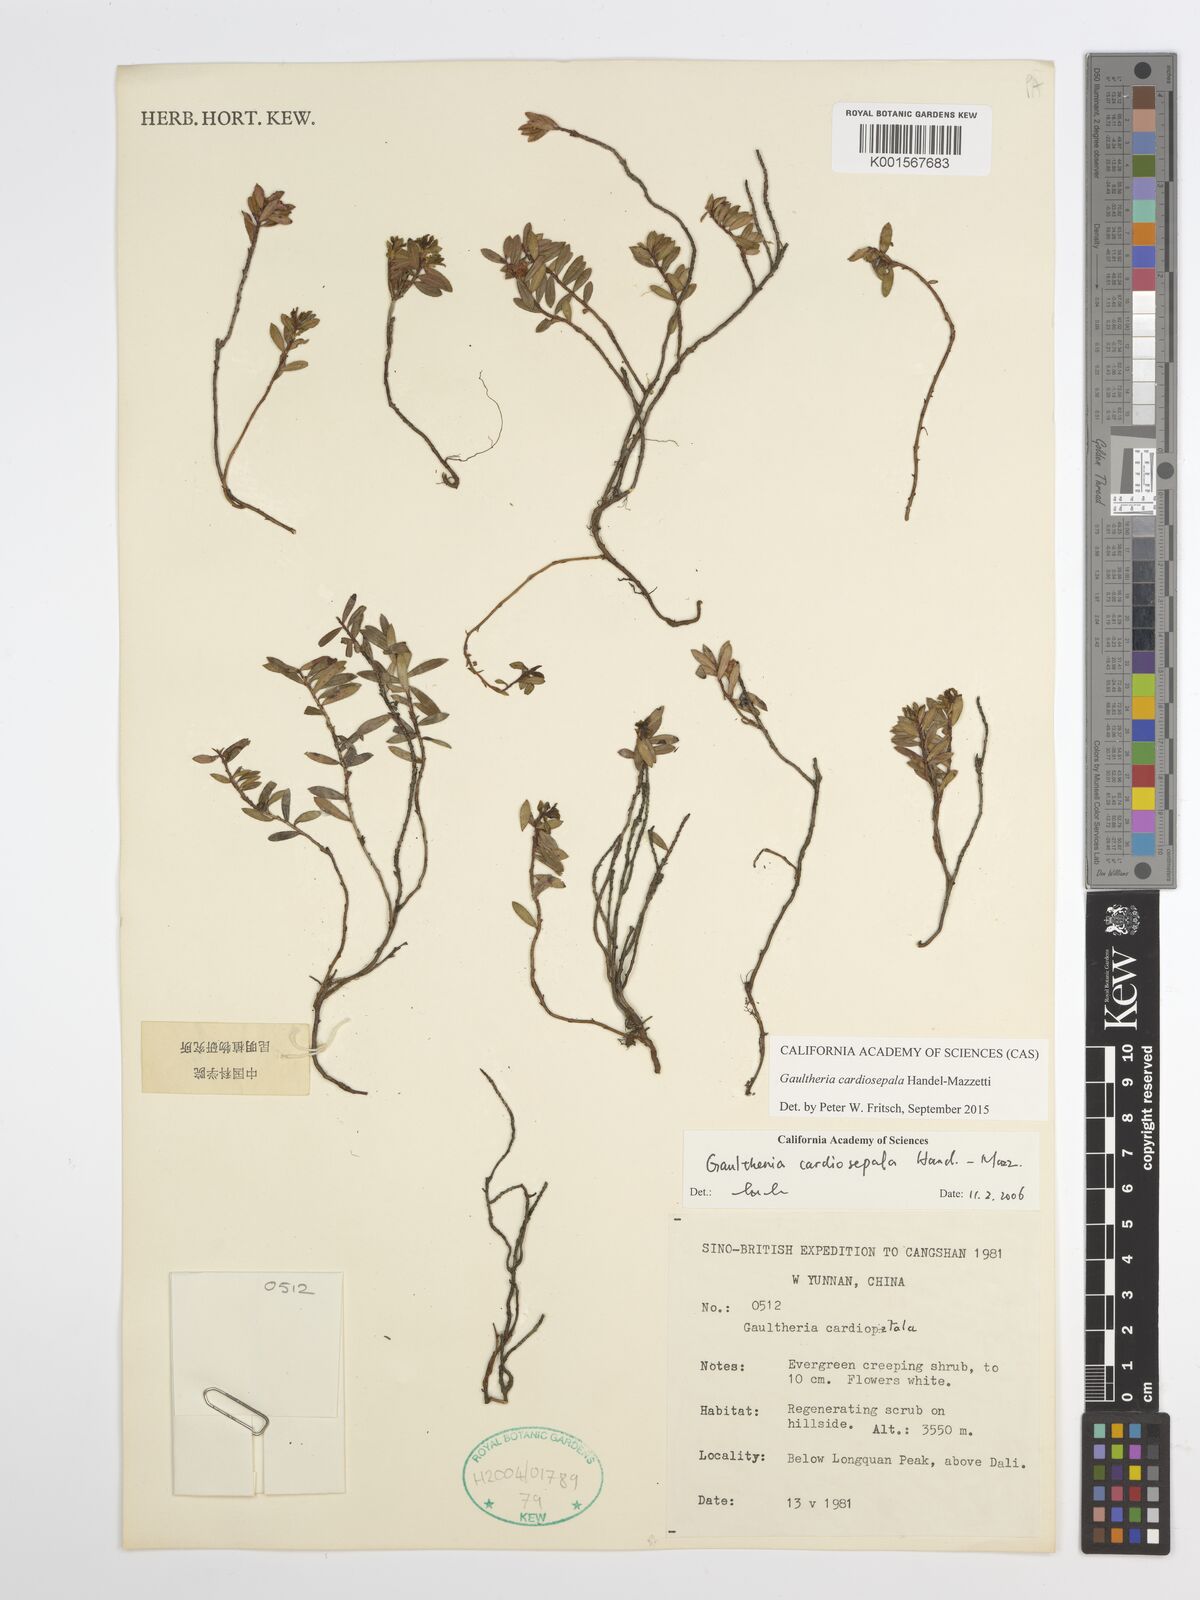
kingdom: Plantae
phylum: Tracheophyta
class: Magnoliopsida
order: Ericales
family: Ericaceae
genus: Gaultheria
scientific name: Gaultheria cardiosepala
